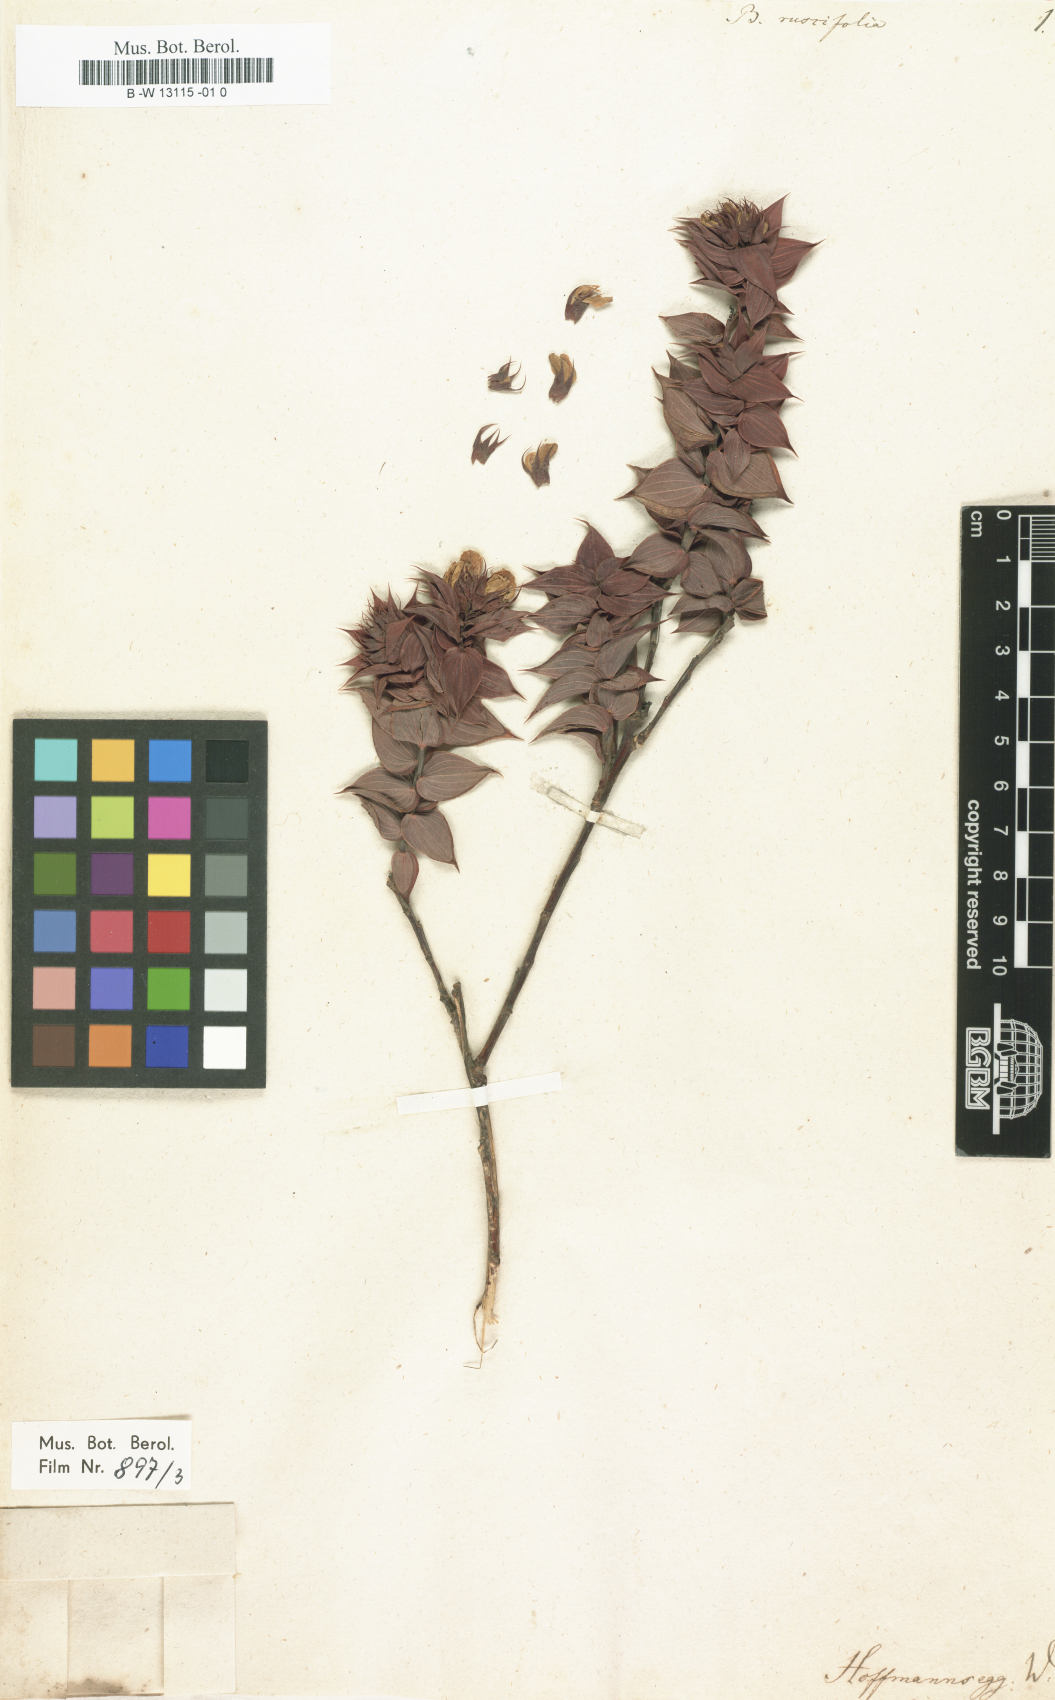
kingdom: Plantae
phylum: Tracheophyta
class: Magnoliopsida
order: Fabales
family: Fabaceae
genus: Aspalathus
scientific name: Aspalathus crenata
